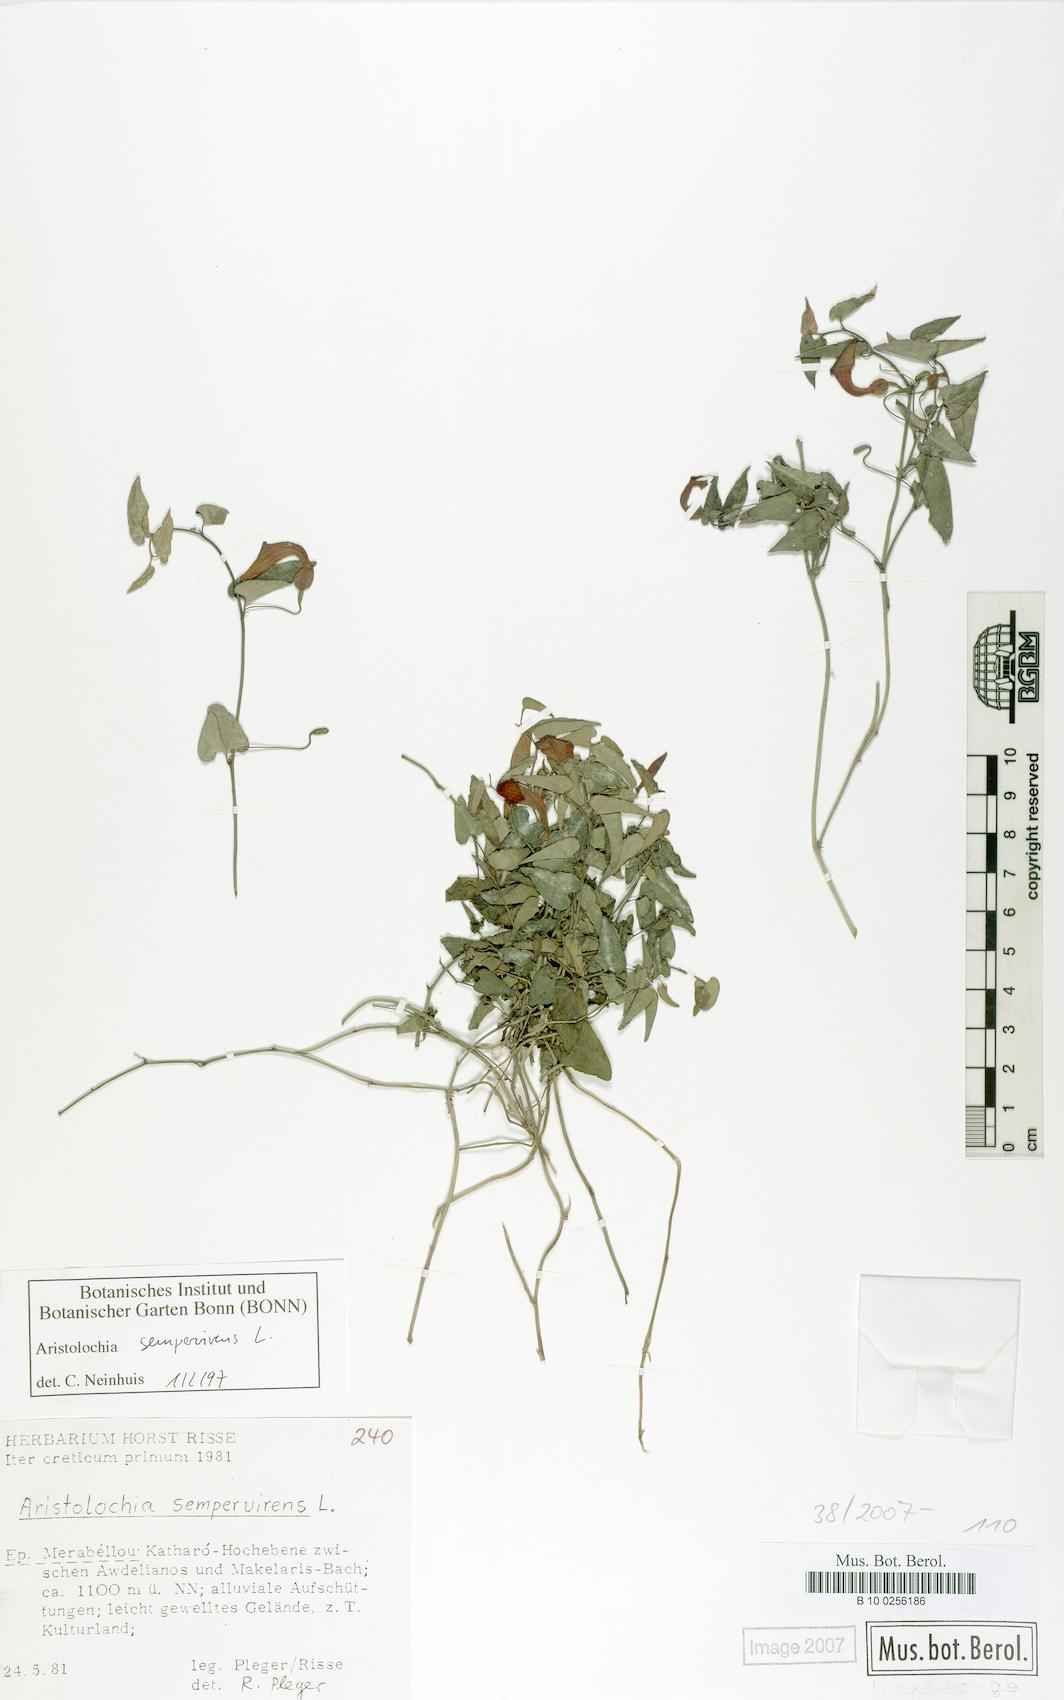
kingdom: Plantae
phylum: Tracheophyta
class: Magnoliopsida
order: Piperales
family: Aristolochiaceae
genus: Aristolochia
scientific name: Aristolochia sempervirens
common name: Long birthwort
